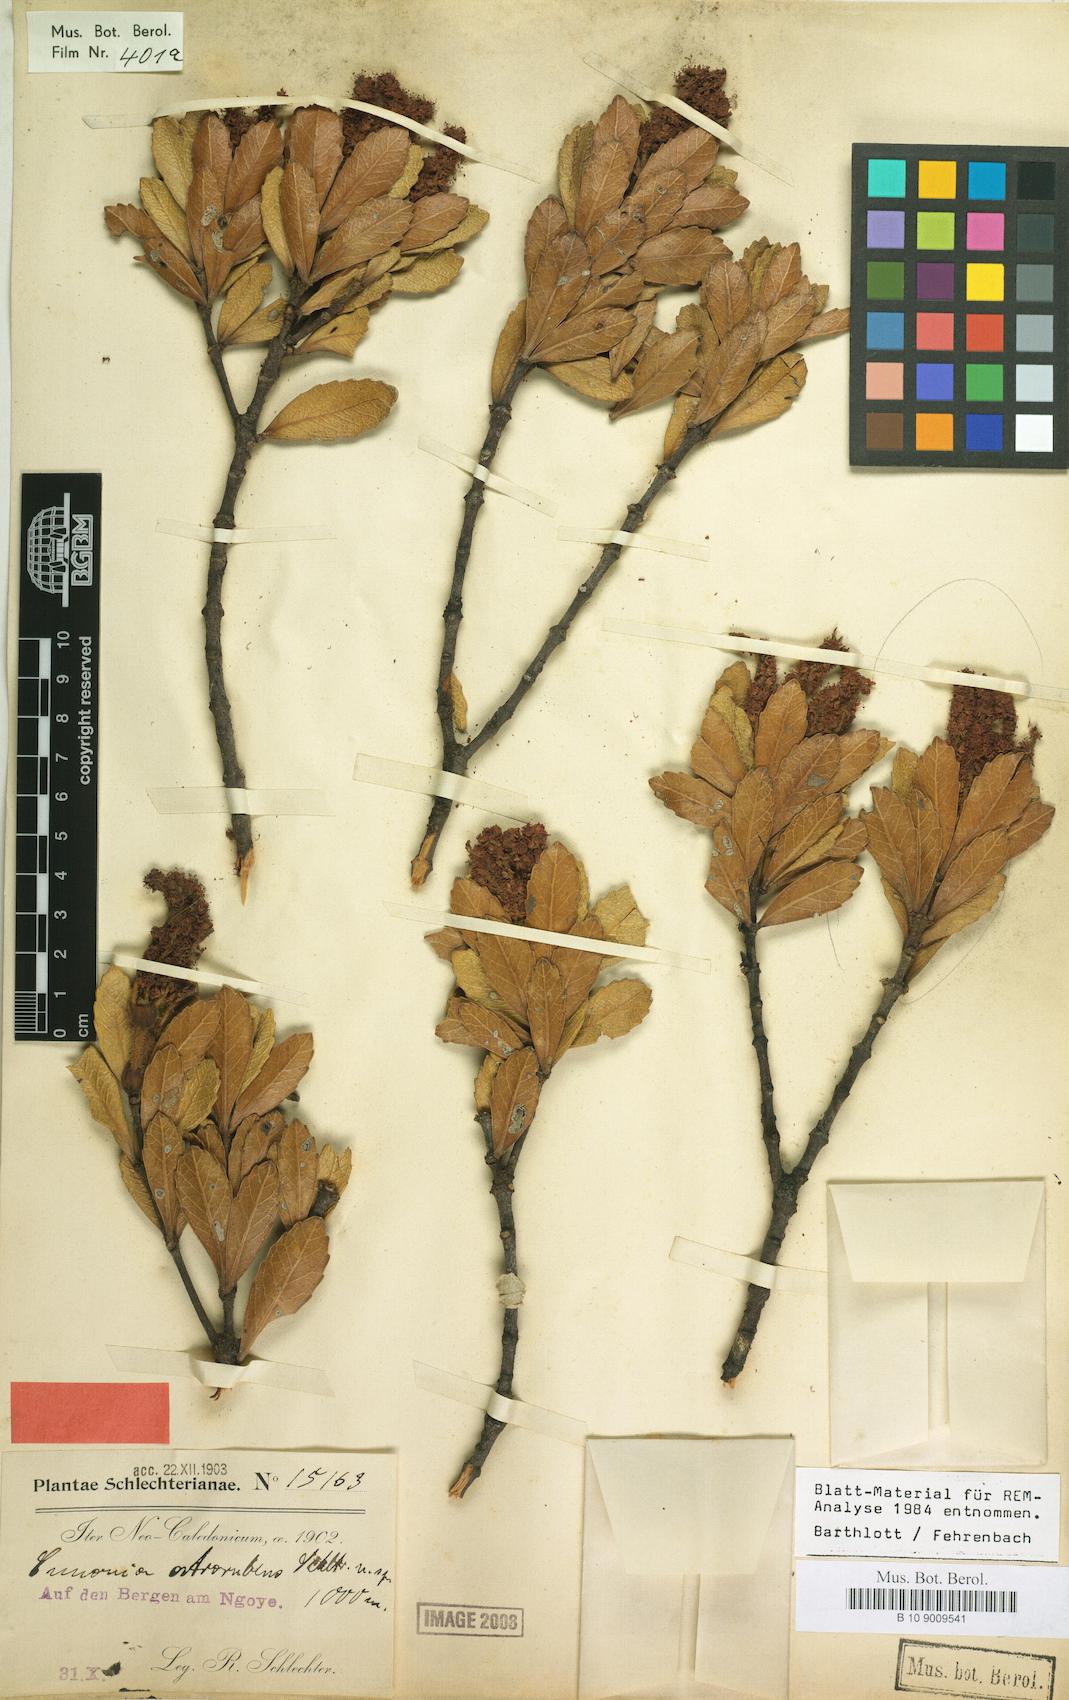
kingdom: Plantae
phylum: Tracheophyta
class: Magnoliopsida
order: Oxalidales
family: Cunoniaceae
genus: Cunonia
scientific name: Cunonia atrorubens
